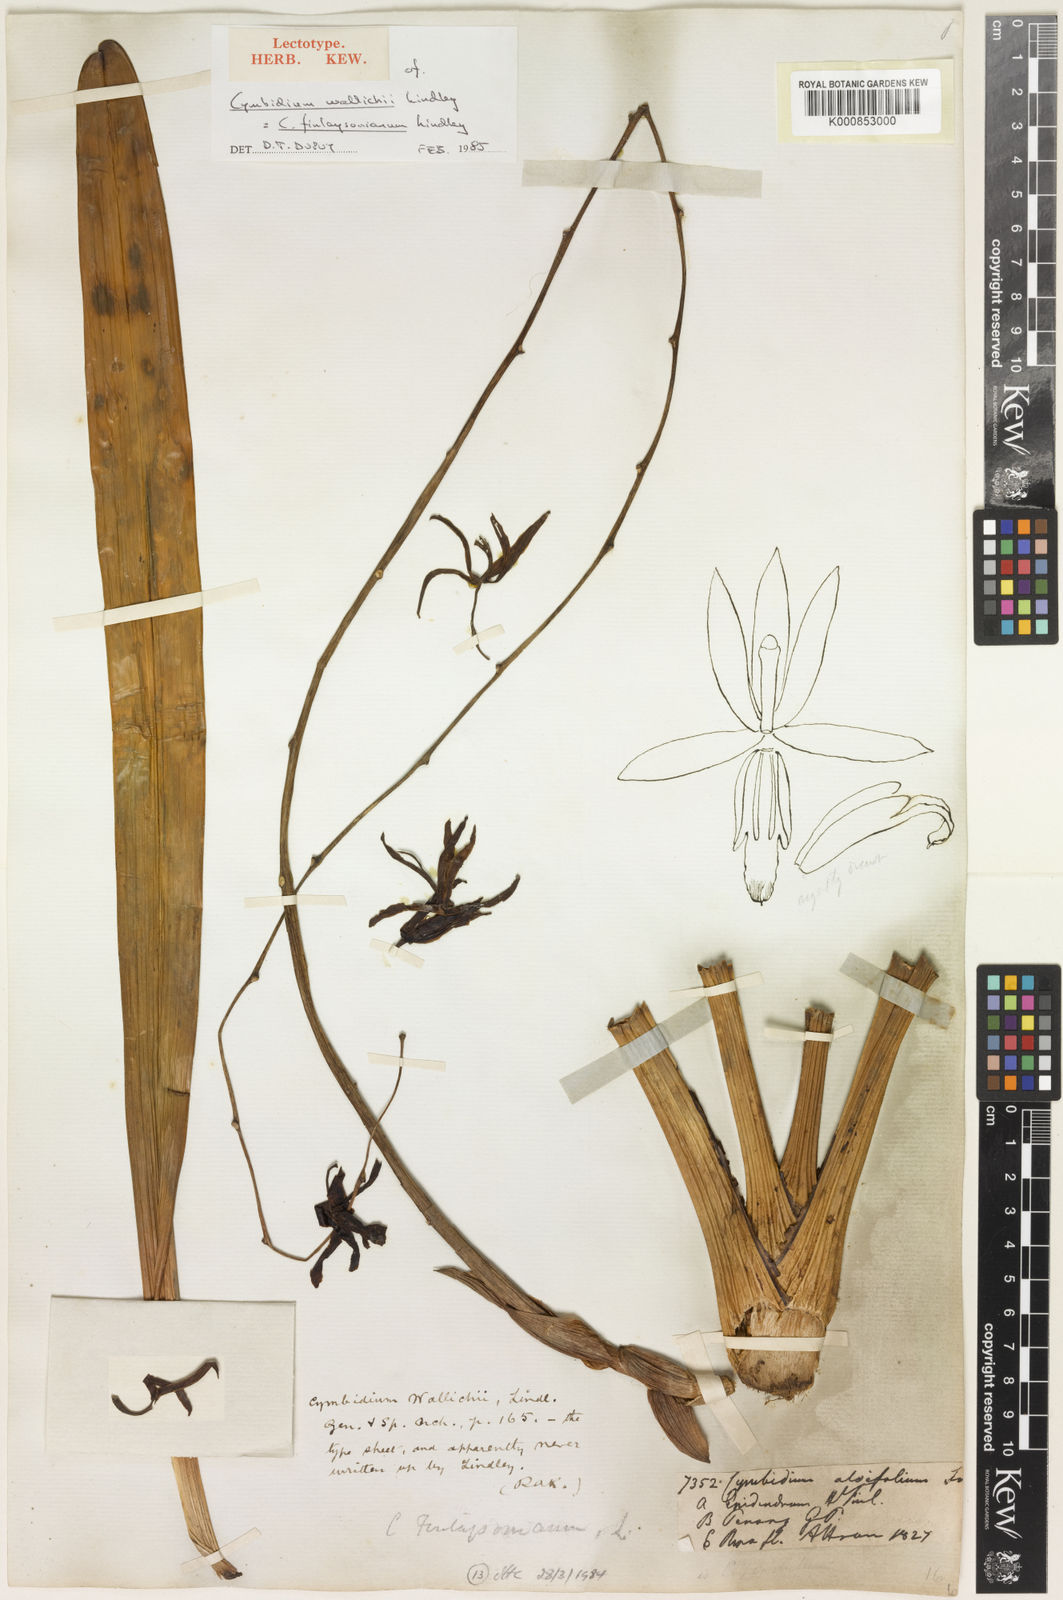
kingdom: Plantae
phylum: Tracheophyta
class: Liliopsida
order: Asparagales
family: Orchidaceae
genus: Cymbidium
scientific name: Cymbidium aloifolium
